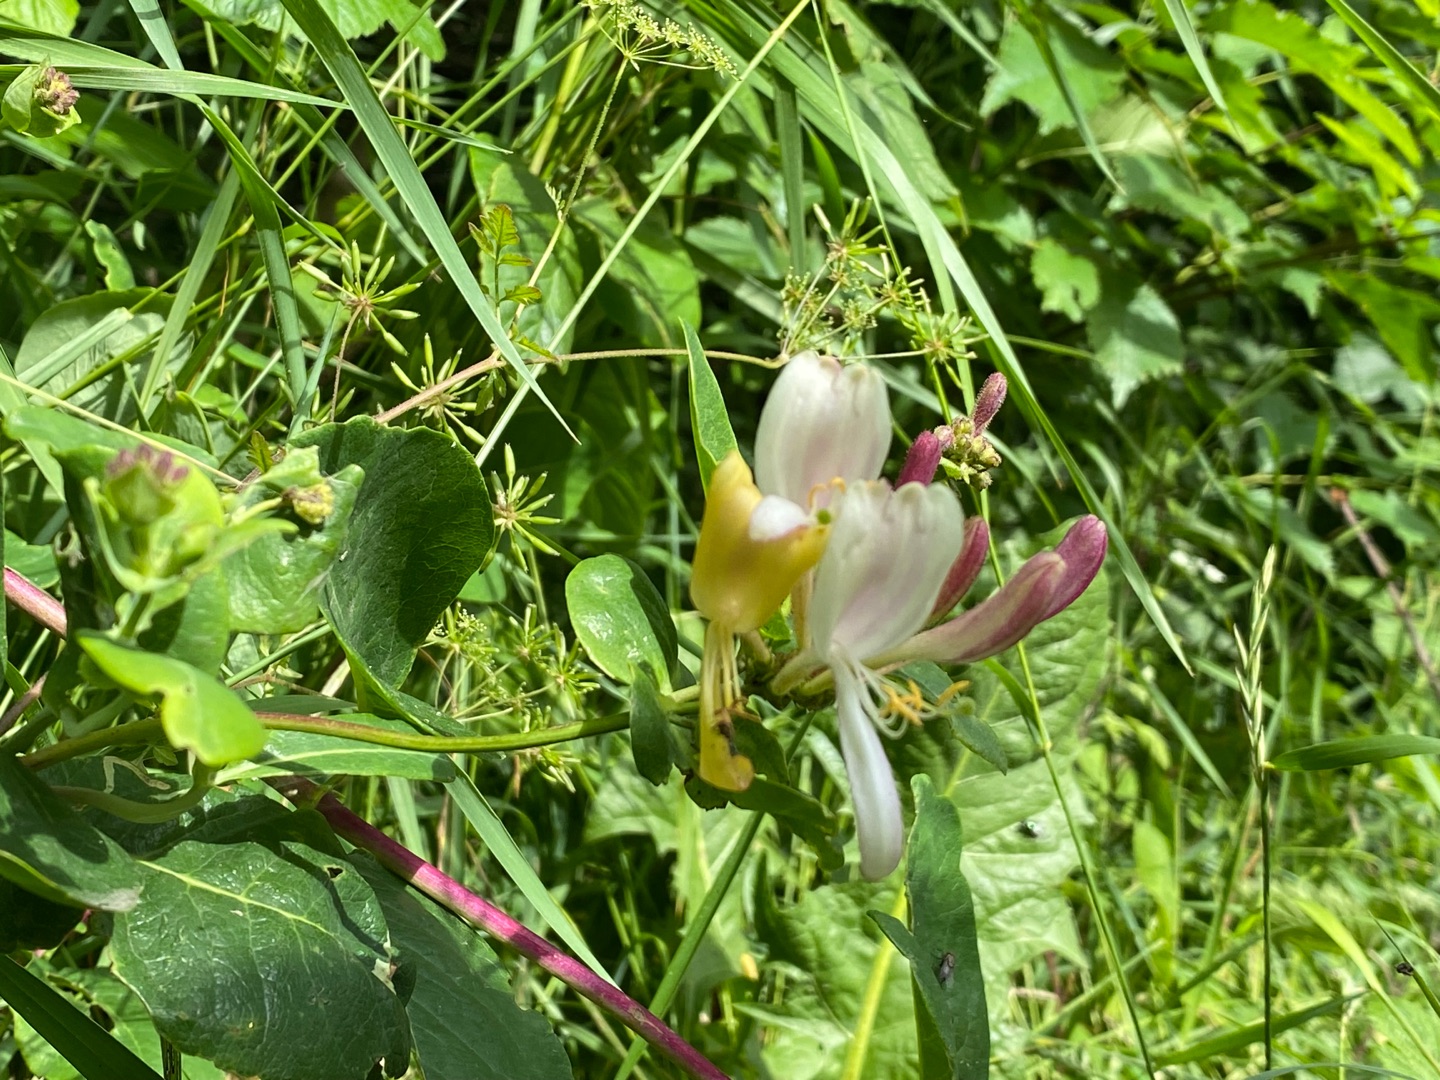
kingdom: Plantae
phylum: Tracheophyta
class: Magnoliopsida
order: Dipsacales
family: Caprifoliaceae
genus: Lonicera
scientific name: Lonicera periclymenum
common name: Almindelig gedeblad
